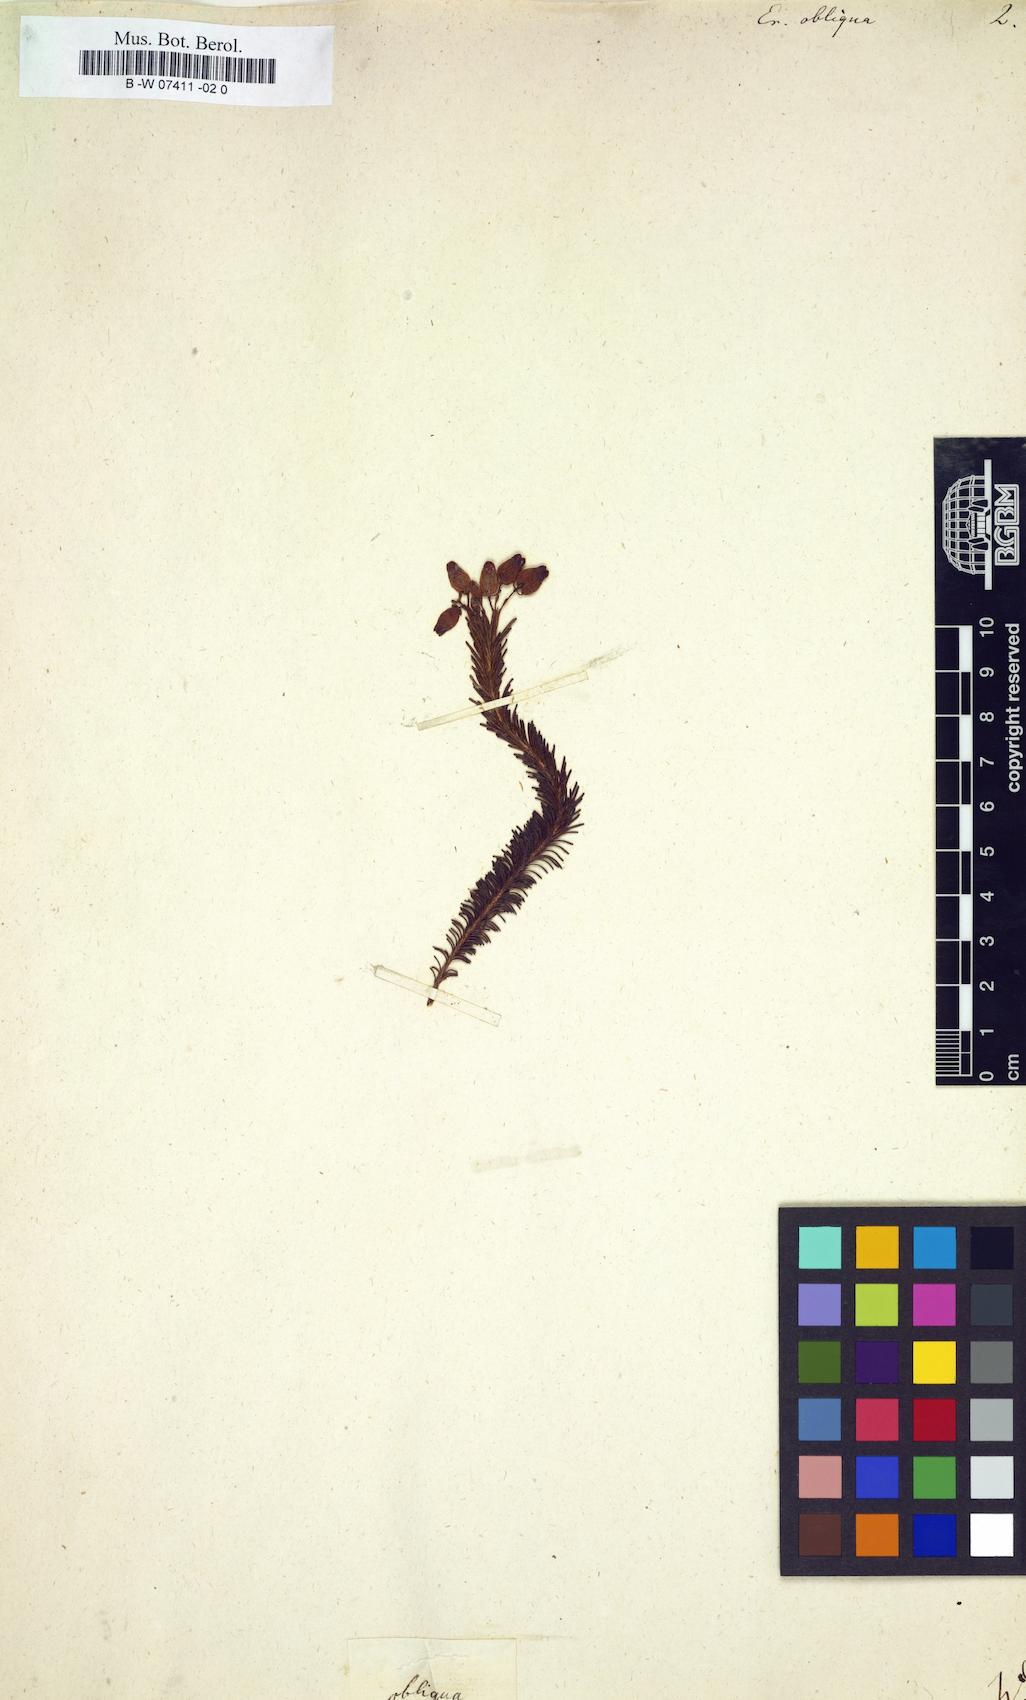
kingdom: Plantae
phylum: Tracheophyta
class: Magnoliopsida
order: Ericales
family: Ericaceae
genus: Erica
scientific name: Erica obliqua
